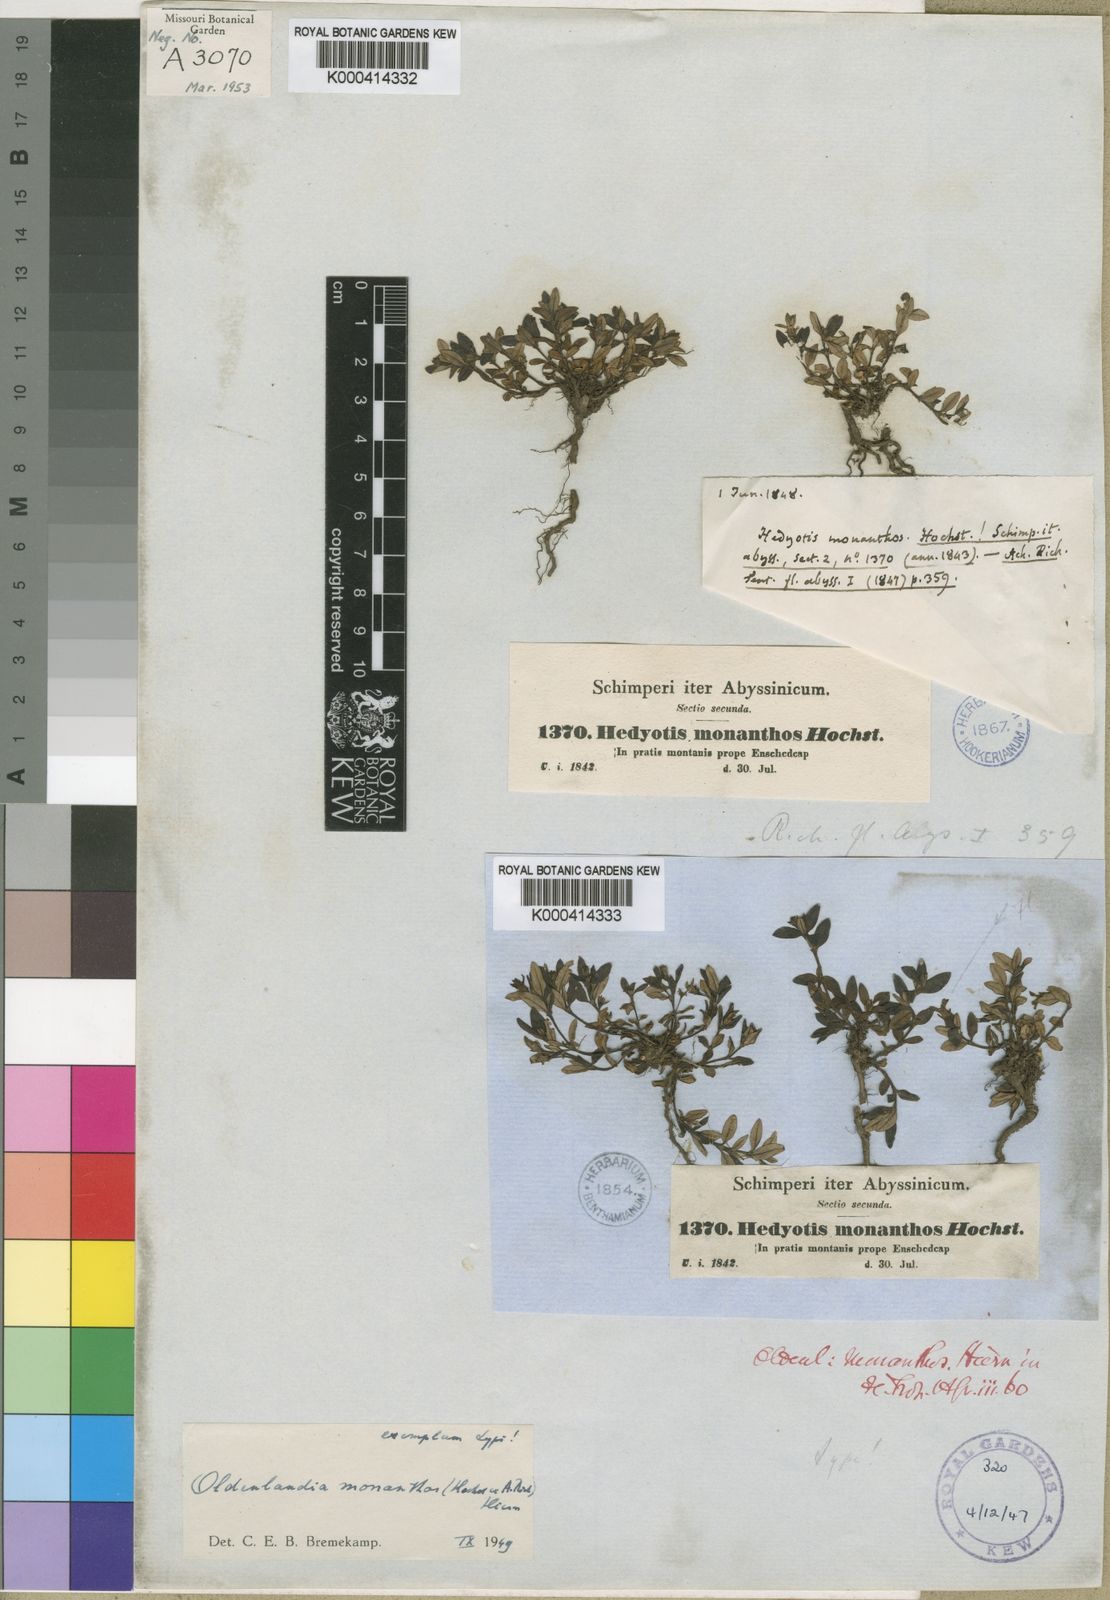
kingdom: Plantae
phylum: Tracheophyta
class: Magnoliopsida
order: Gentianales
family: Rubiaceae
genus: Oldenlandia
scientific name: Oldenlandia
